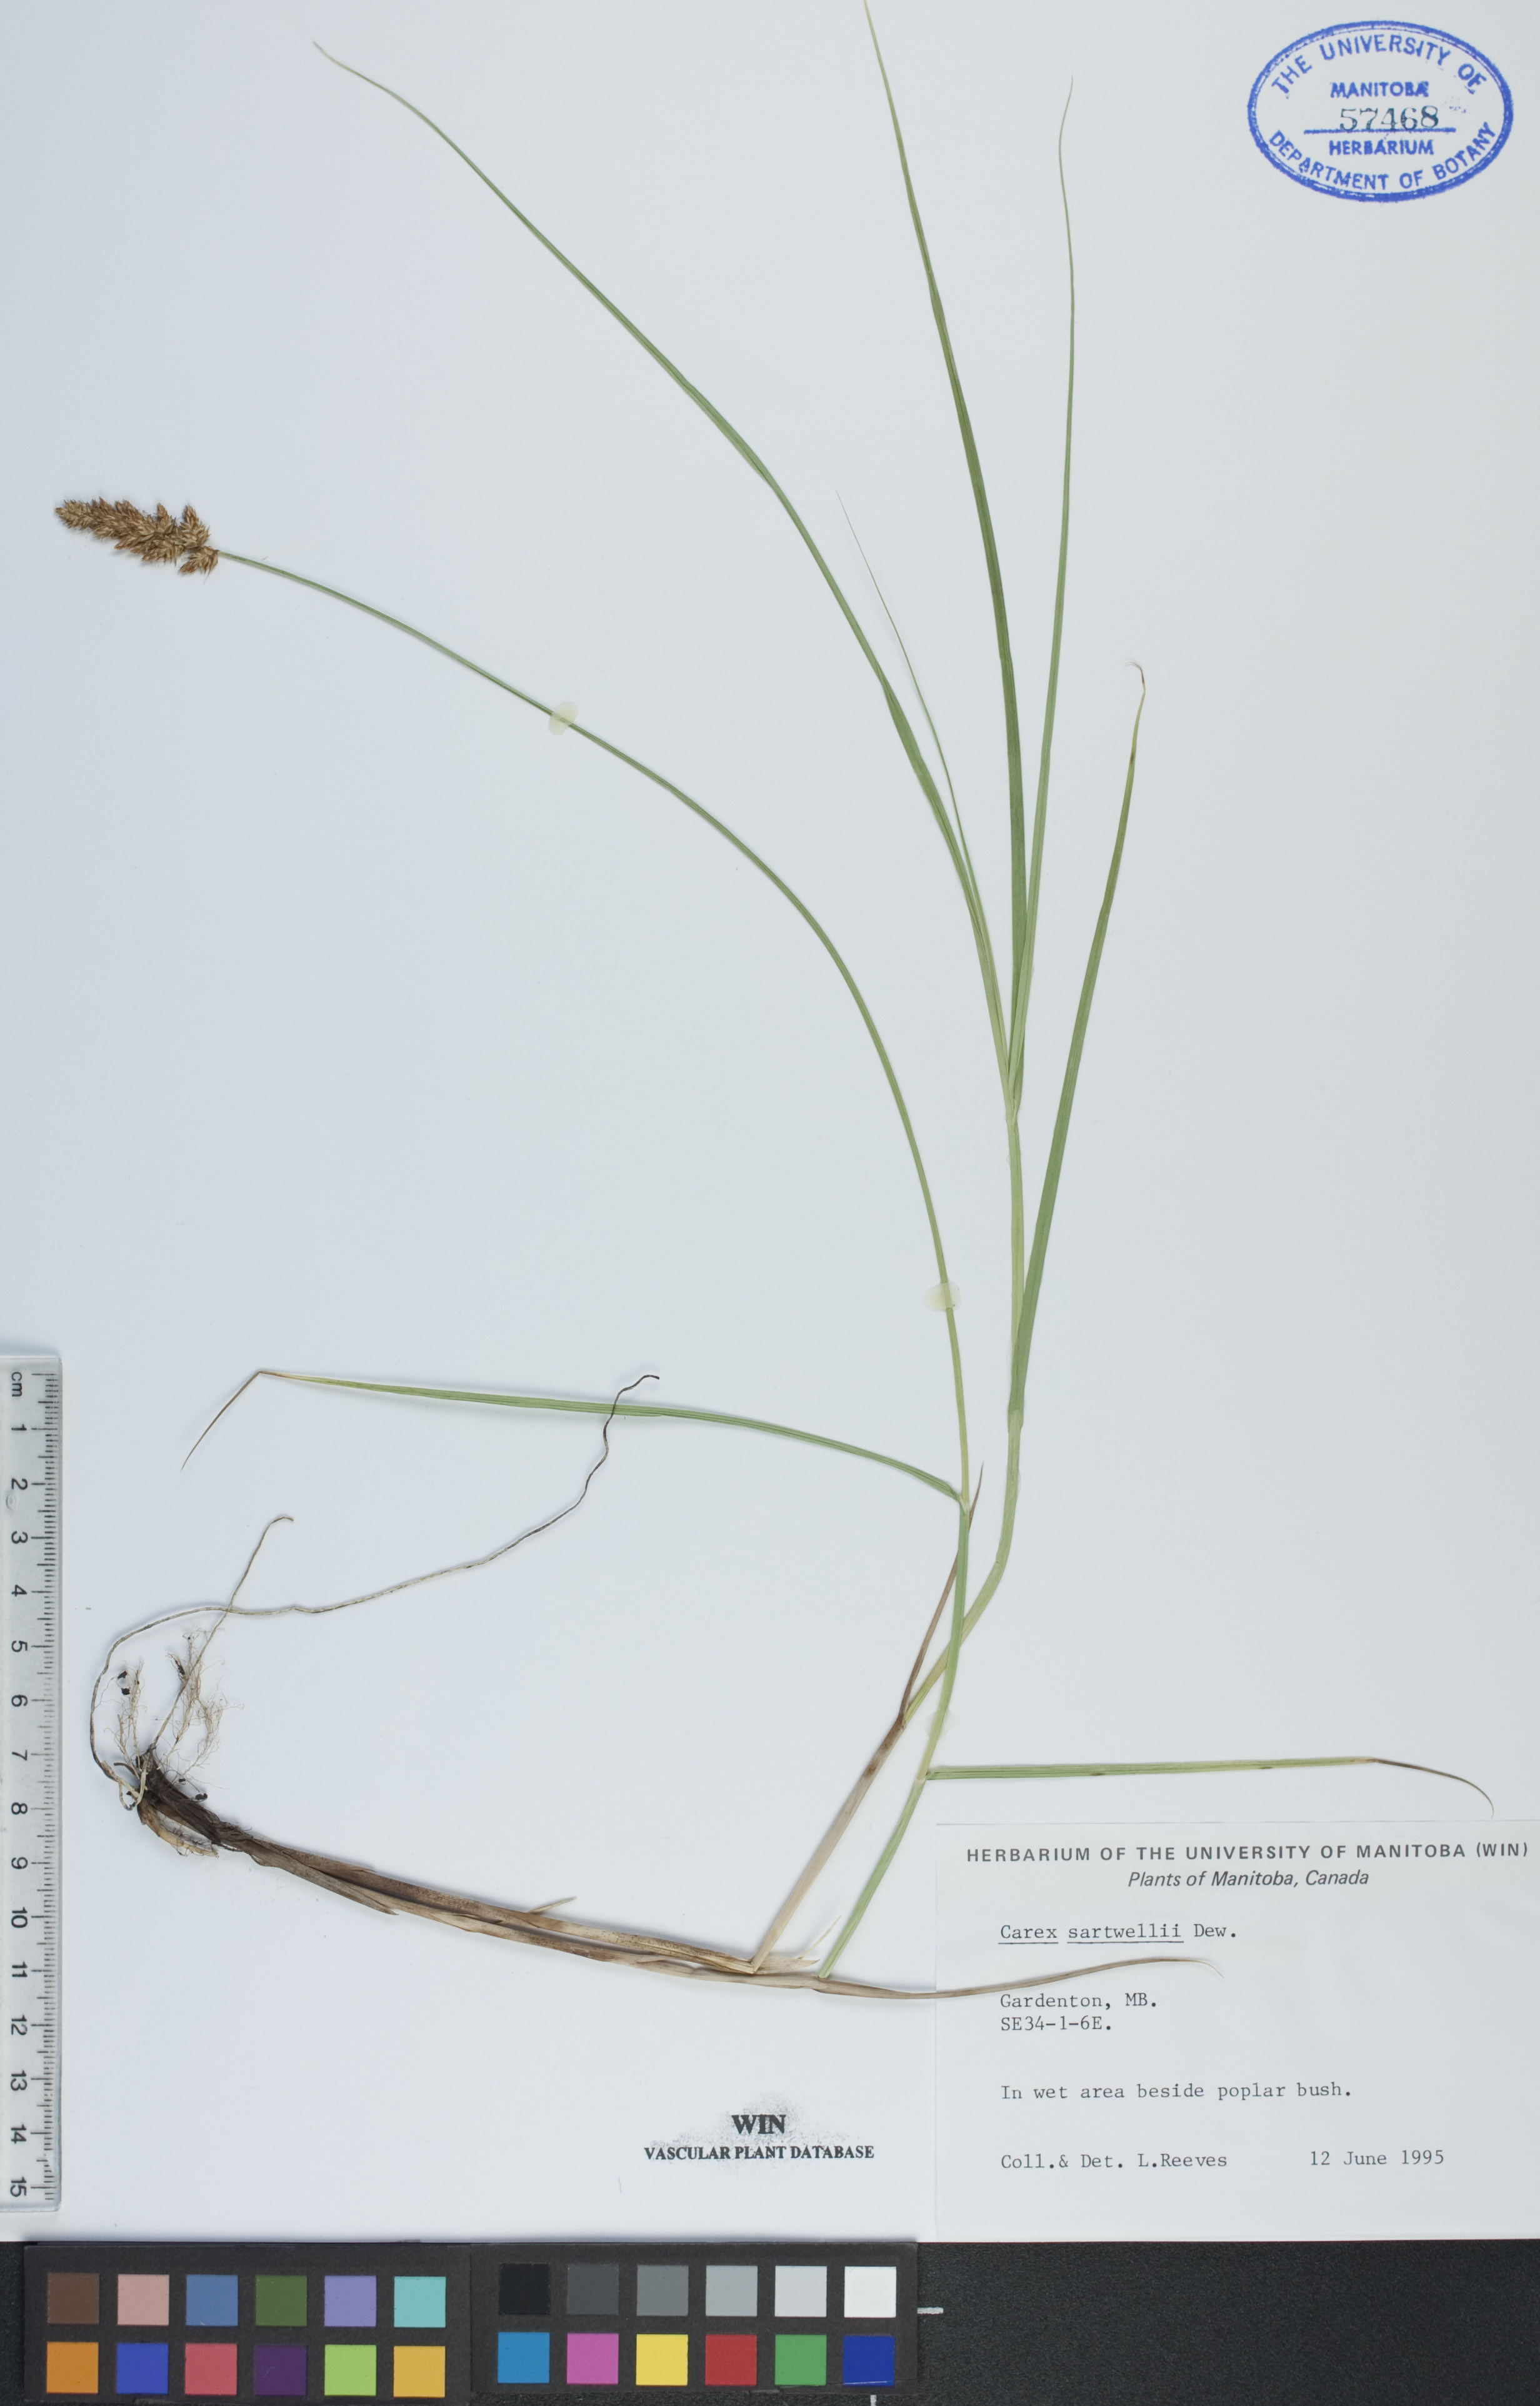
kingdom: Plantae
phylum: Tracheophyta
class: Liliopsida
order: Poales
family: Cyperaceae
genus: Carex
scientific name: Carex sartwellii
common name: Sartwell's sedge
